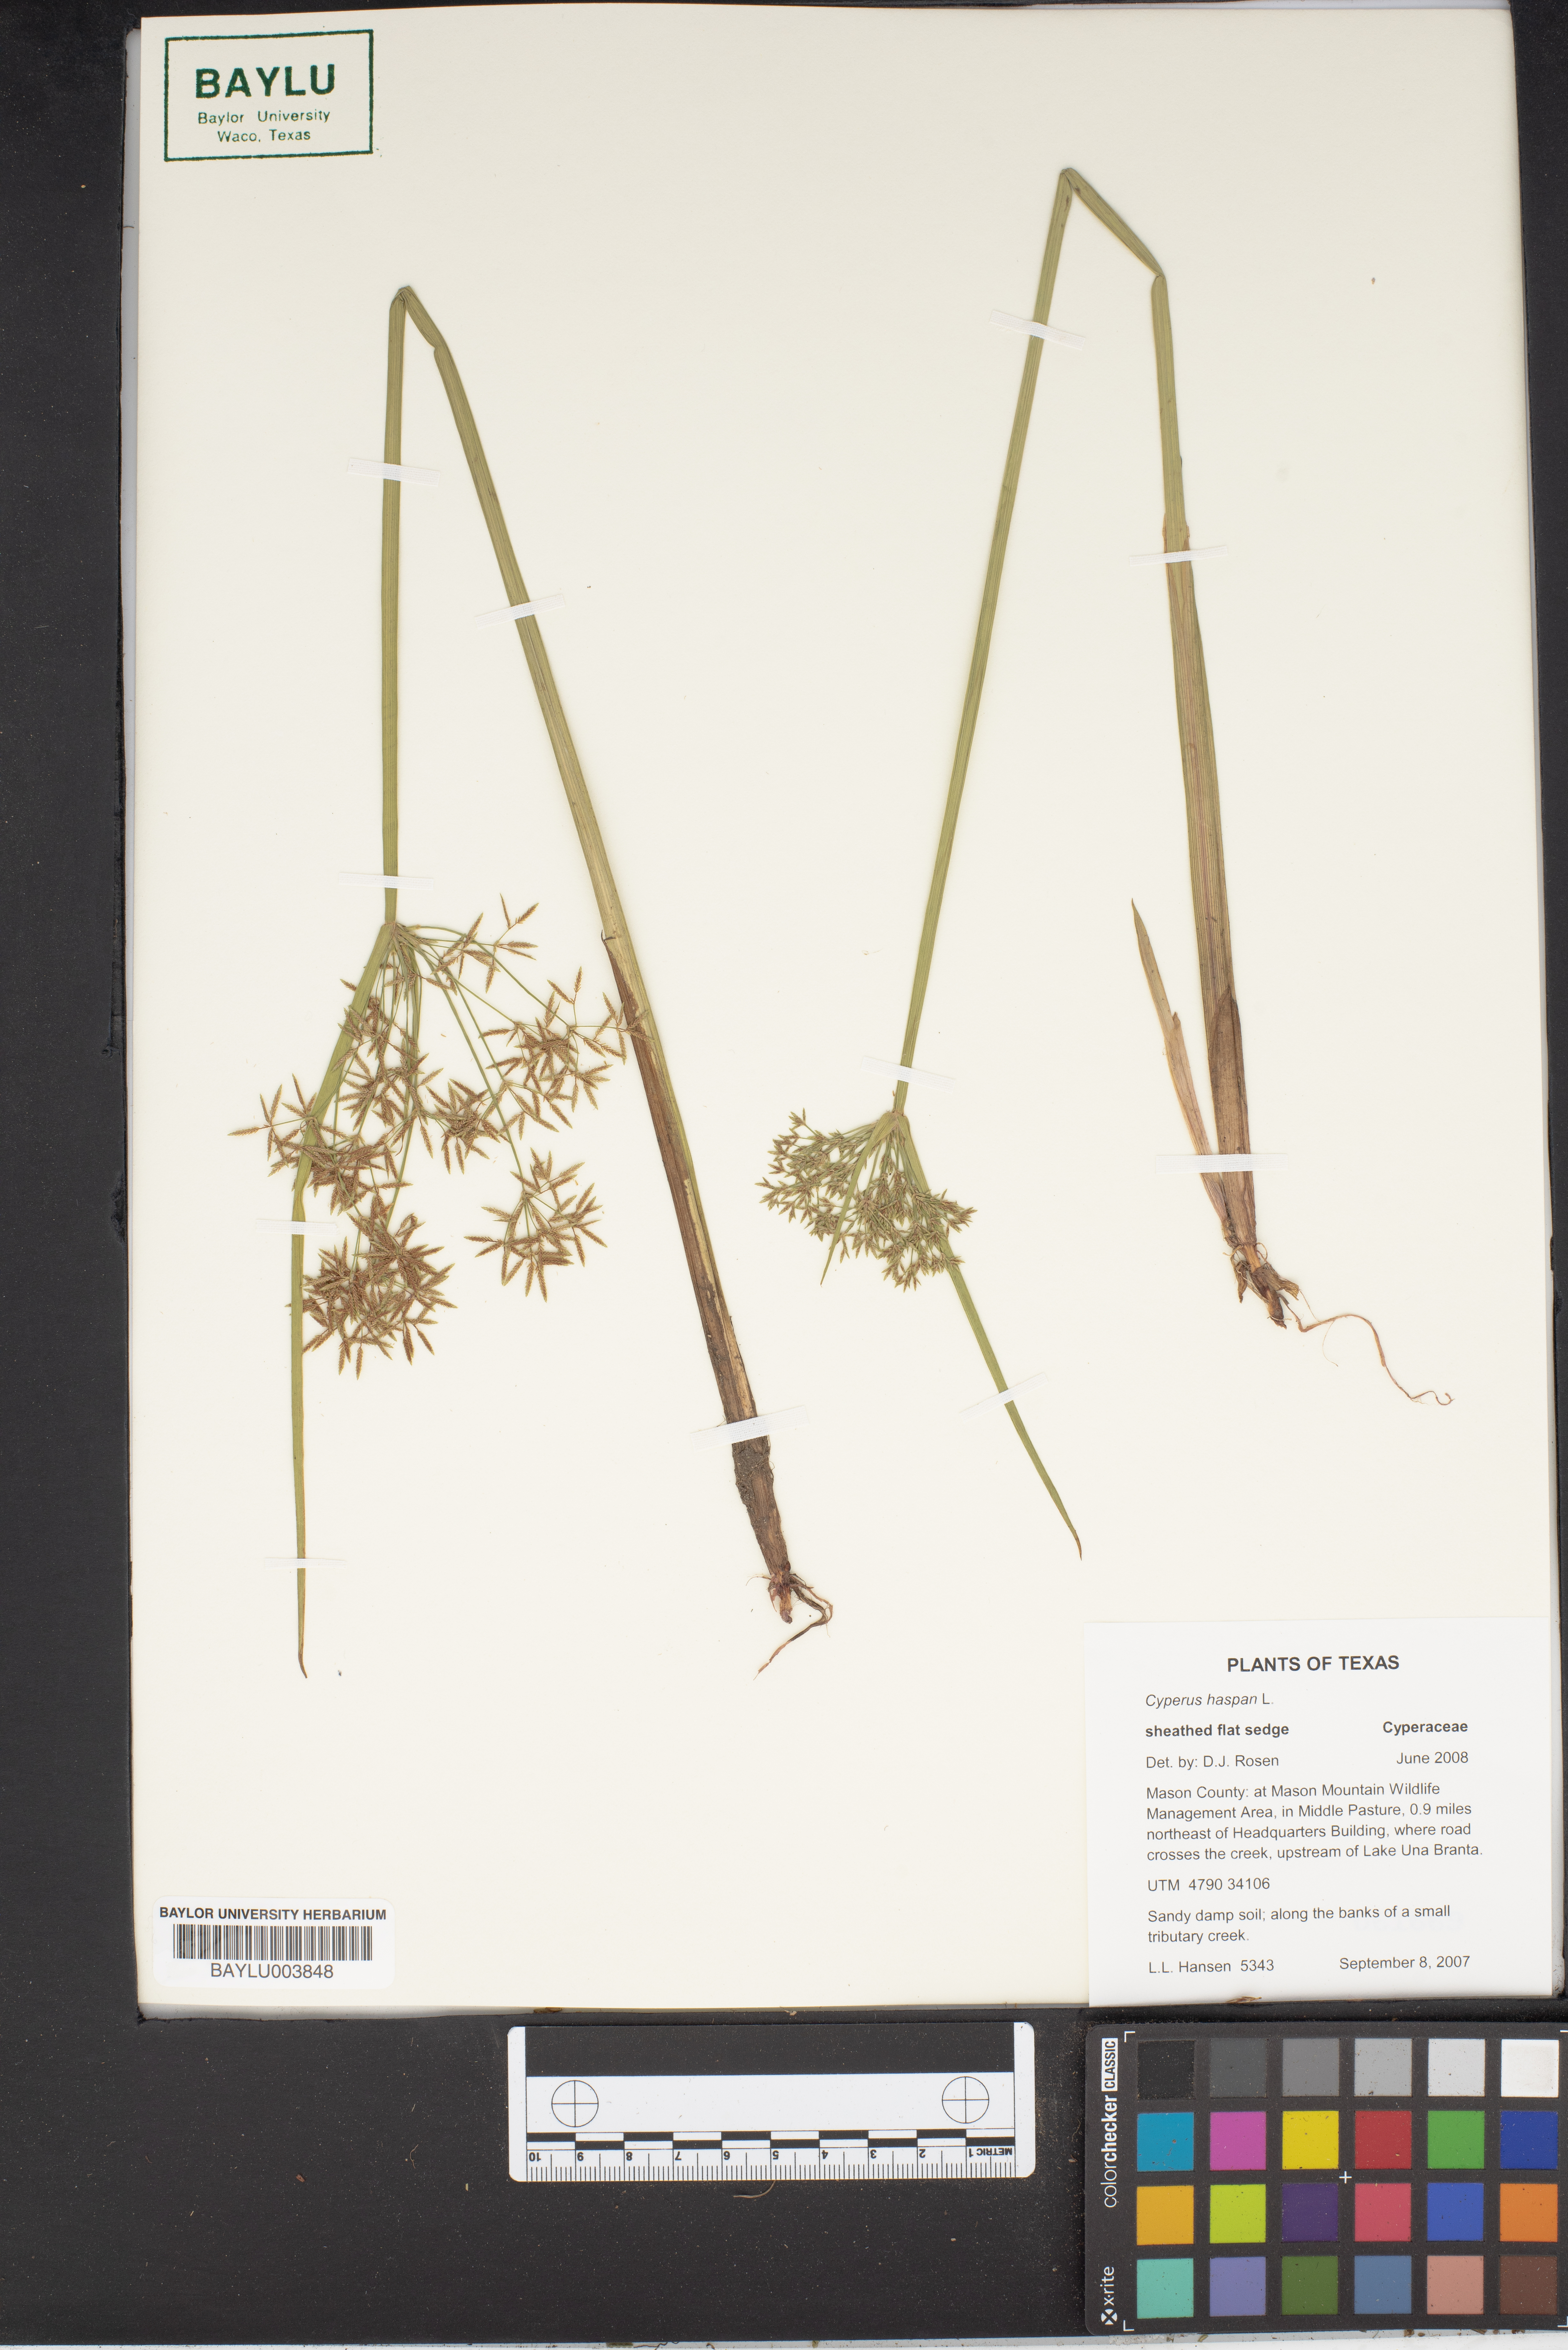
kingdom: Plantae
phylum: Tracheophyta
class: Liliopsida
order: Poales
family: Cyperaceae
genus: Cyperus
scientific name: Cyperus haspan
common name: Haspan flatsedge
